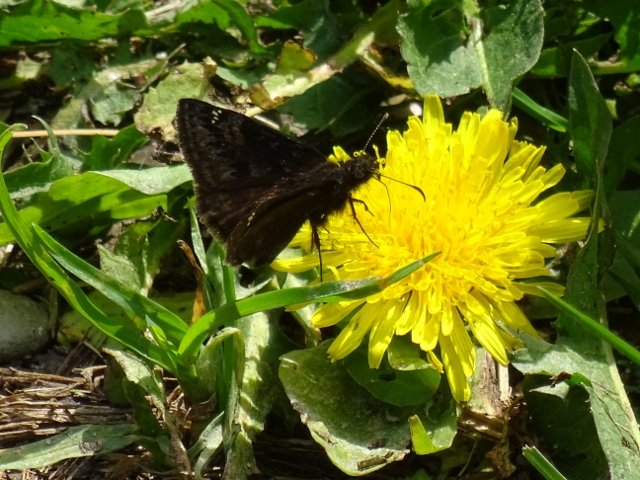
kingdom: Animalia
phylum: Arthropoda
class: Insecta
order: Lepidoptera
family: Hesperiidae
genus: Gesta
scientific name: Gesta
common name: Columbine Duskywing
